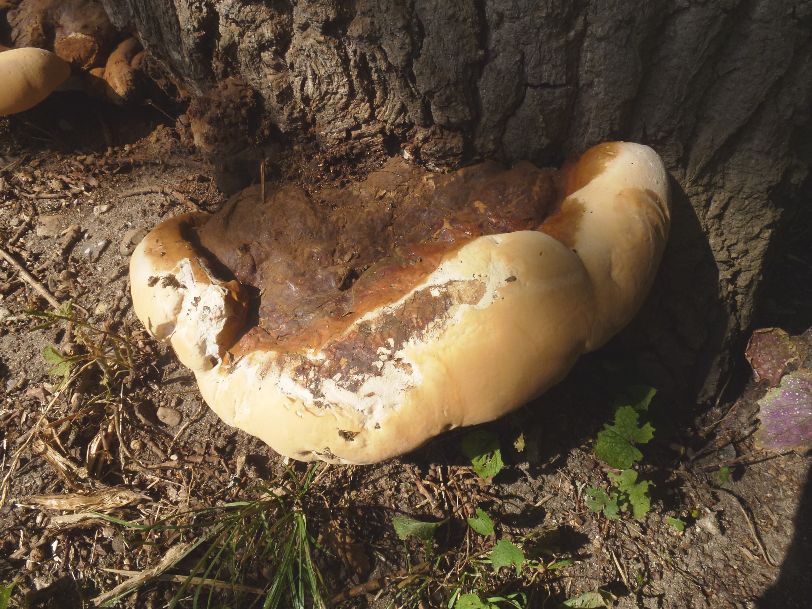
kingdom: Fungi
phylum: Basidiomycota
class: Agaricomycetes
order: Polyporales
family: Polyporaceae
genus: Ganoderma
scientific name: Ganoderma resinaceum
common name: gyldenbrun lakporesvamp
